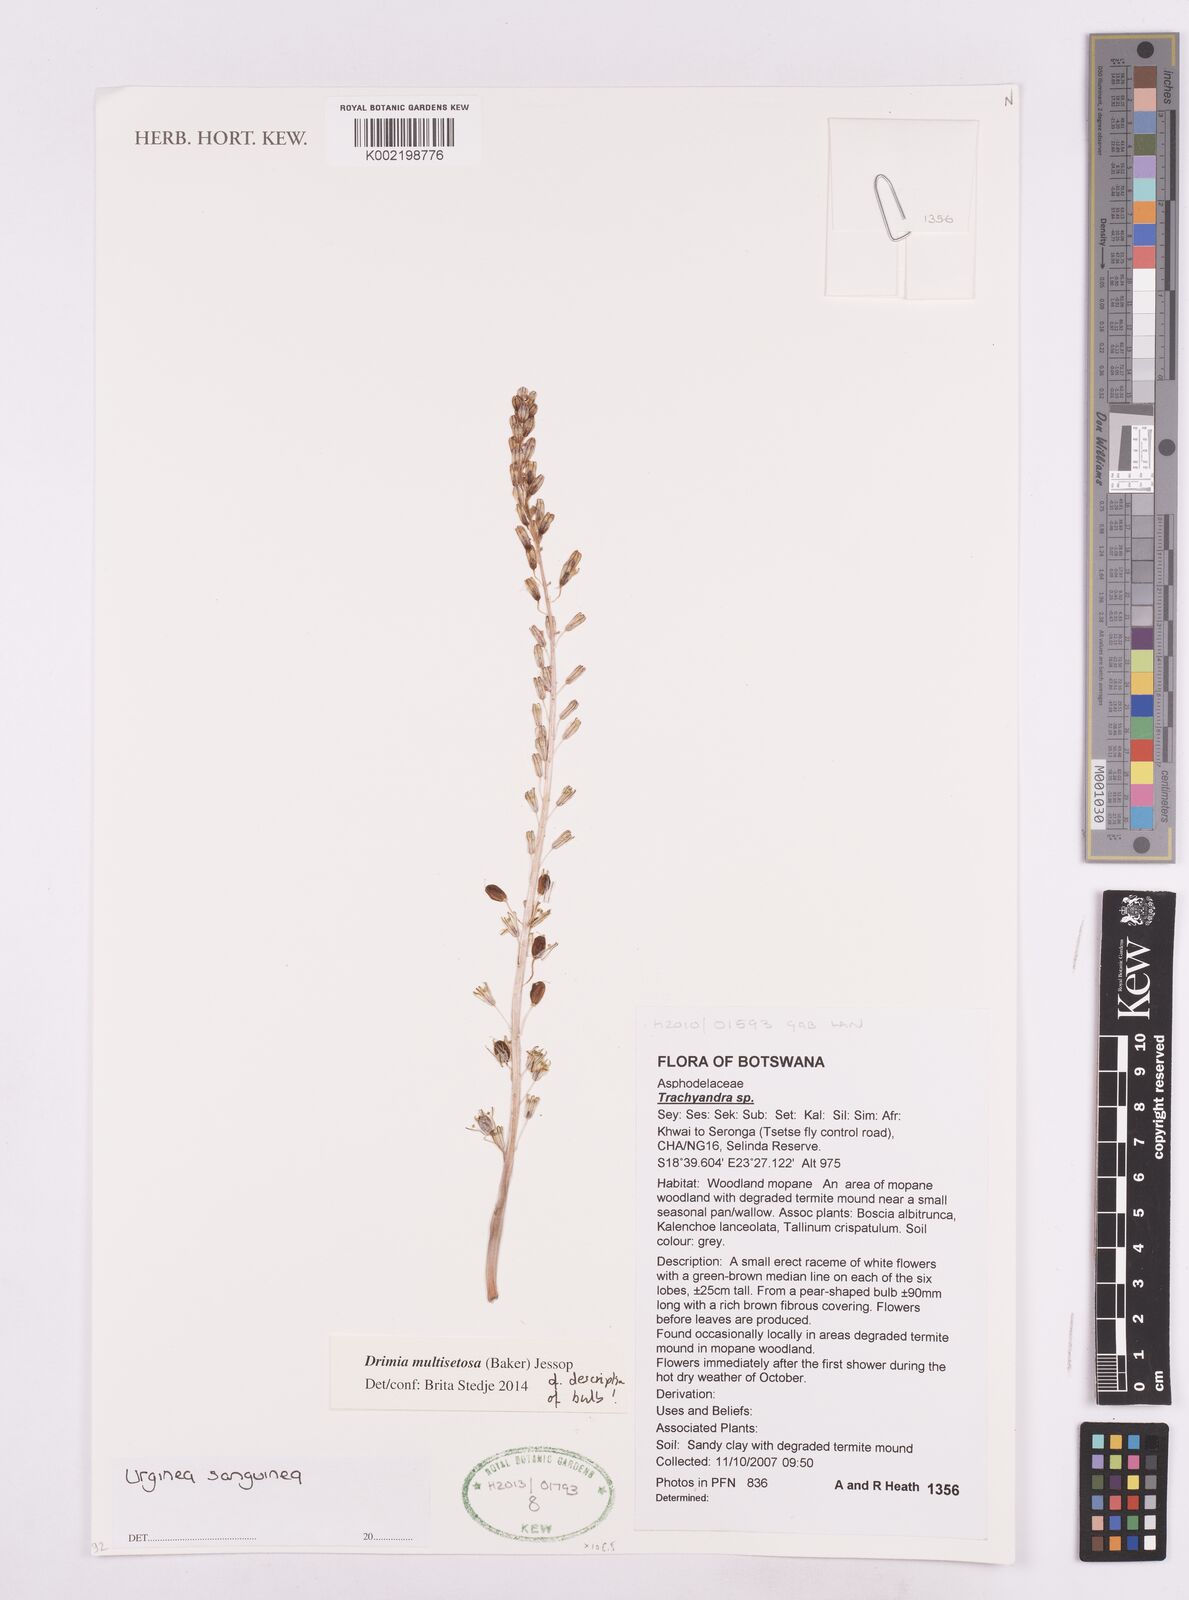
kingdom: Plantae
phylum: Tracheophyta
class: Liliopsida
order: Asparagales
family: Asparagaceae
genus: Drimia
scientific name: Drimia multisetosa
